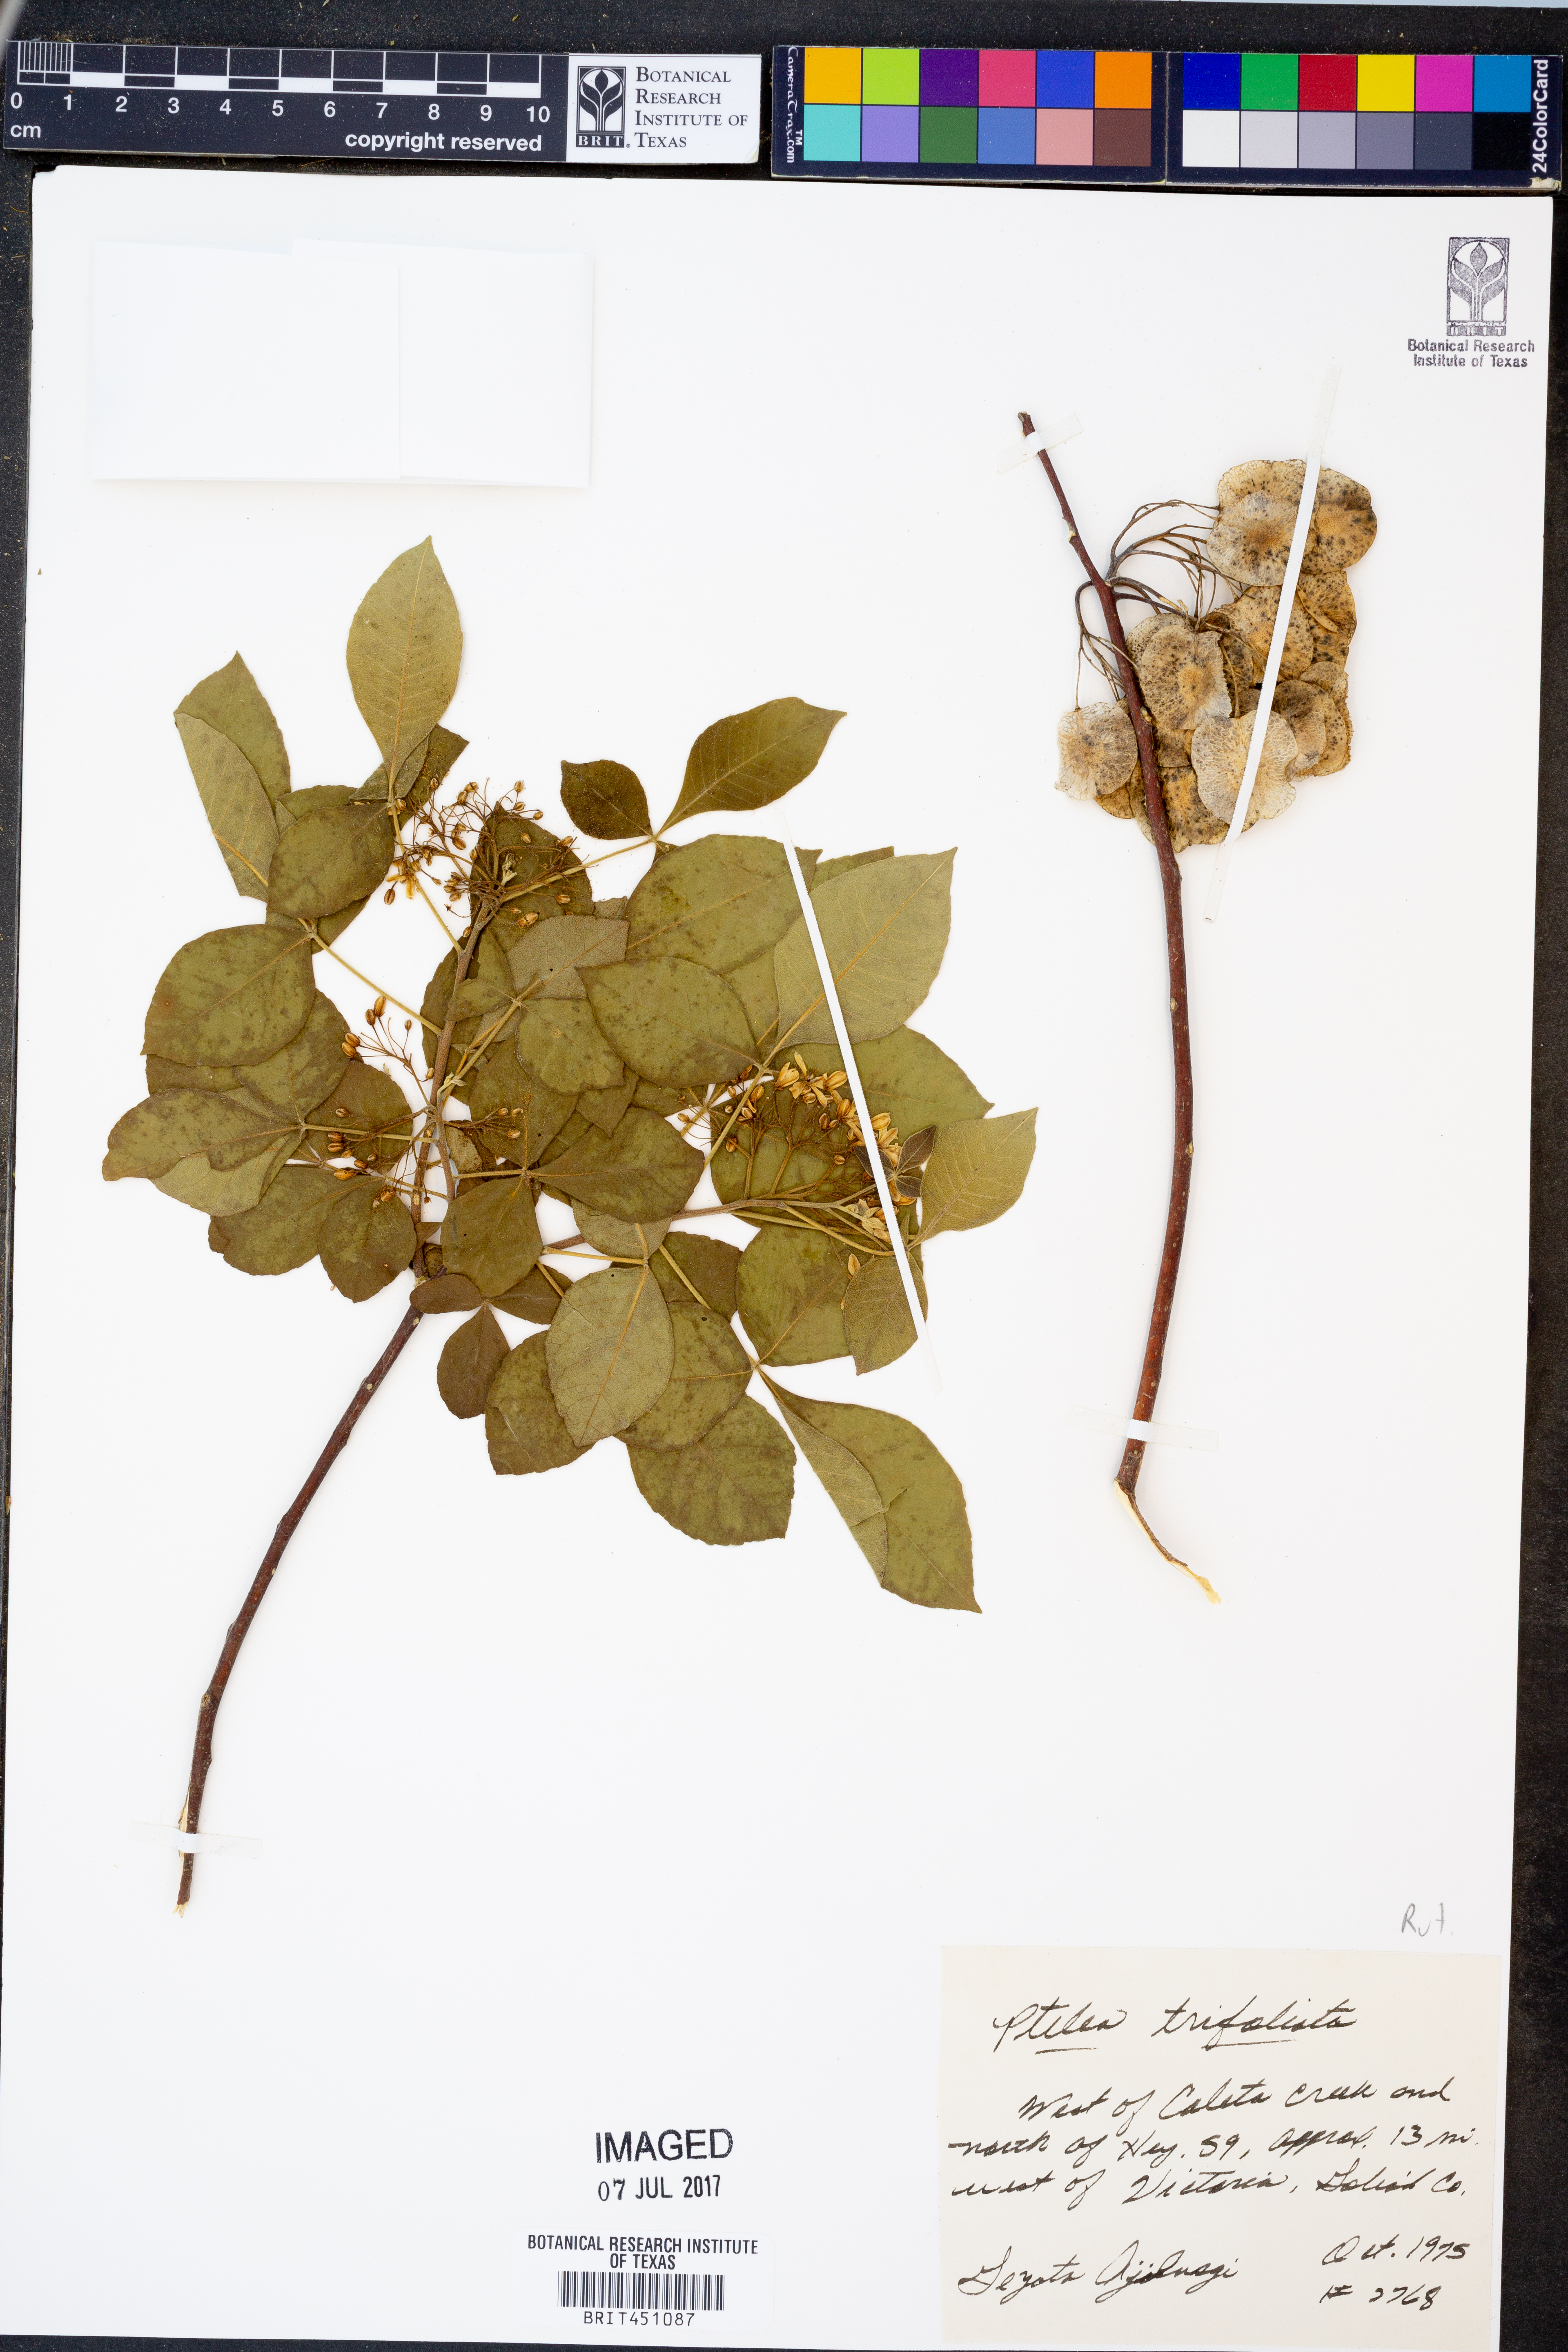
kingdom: Plantae
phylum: Tracheophyta
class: Magnoliopsida
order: Sapindales
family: Rutaceae
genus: Ptelea
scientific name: Ptelea trifoliata
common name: Common hop-tree
